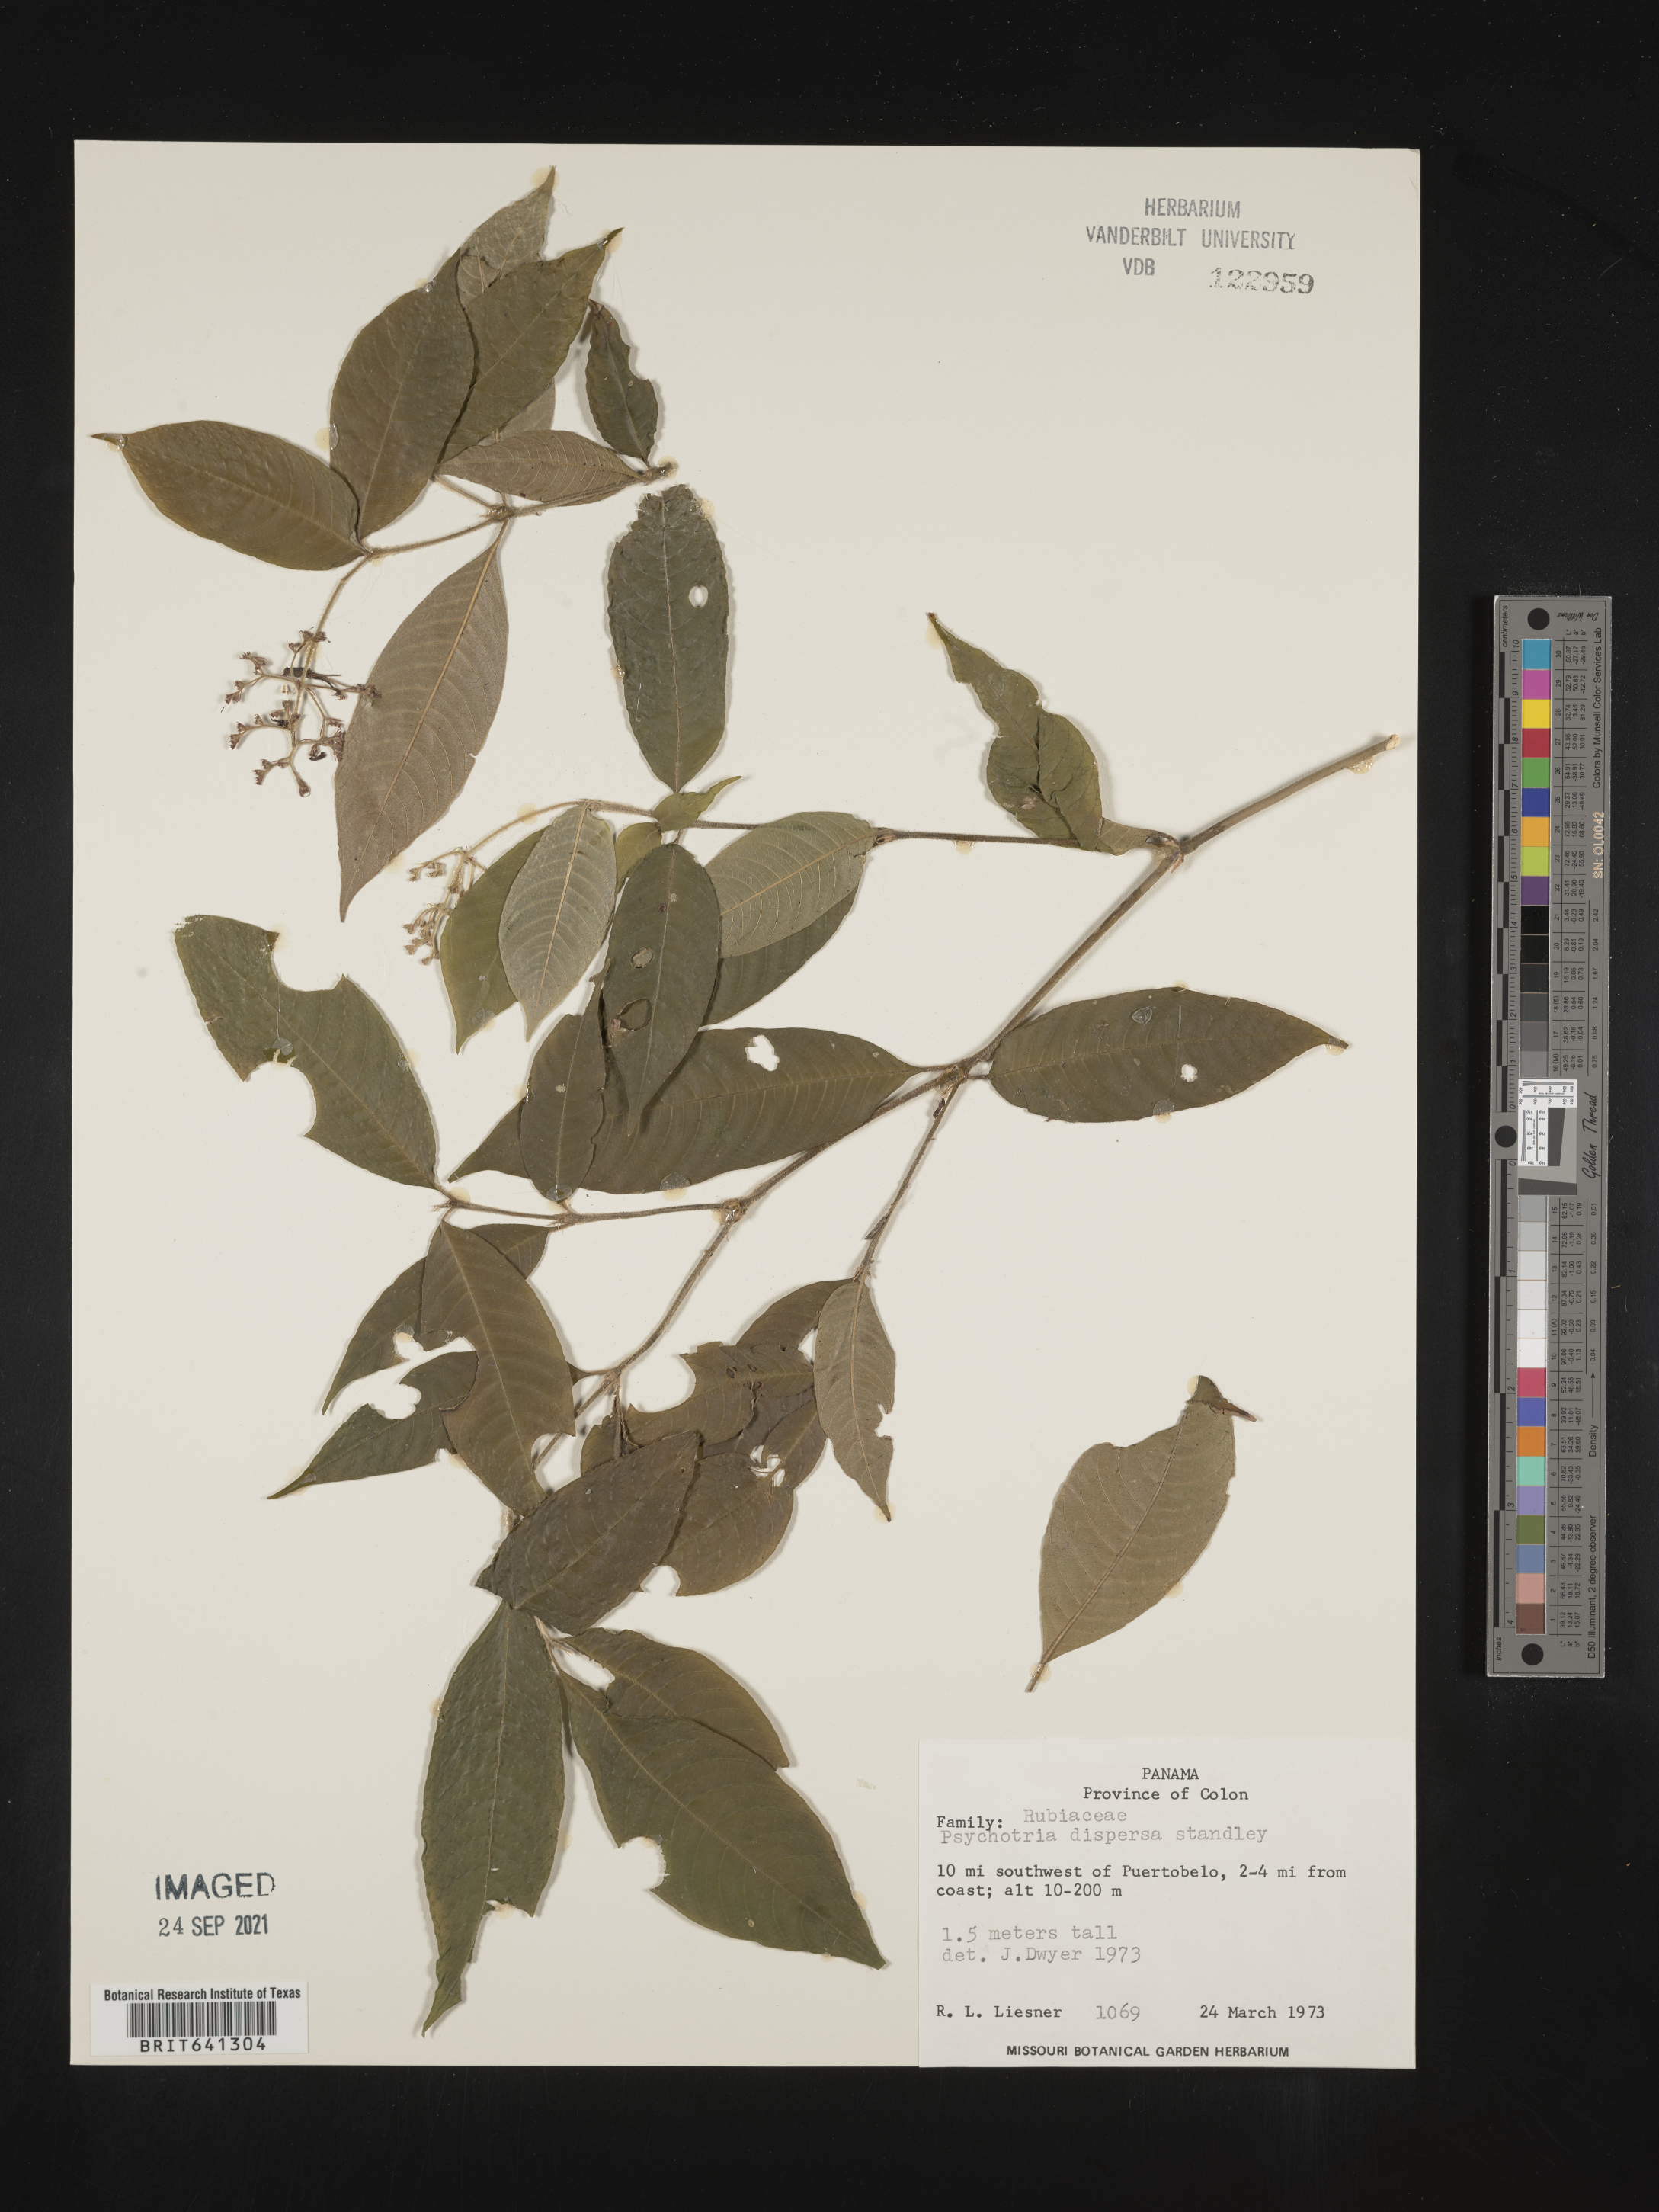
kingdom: Plantae
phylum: Tracheophyta
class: Magnoliopsida
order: Gentianales
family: Rubiaceae
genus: Psychotria
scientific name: Psychotria
